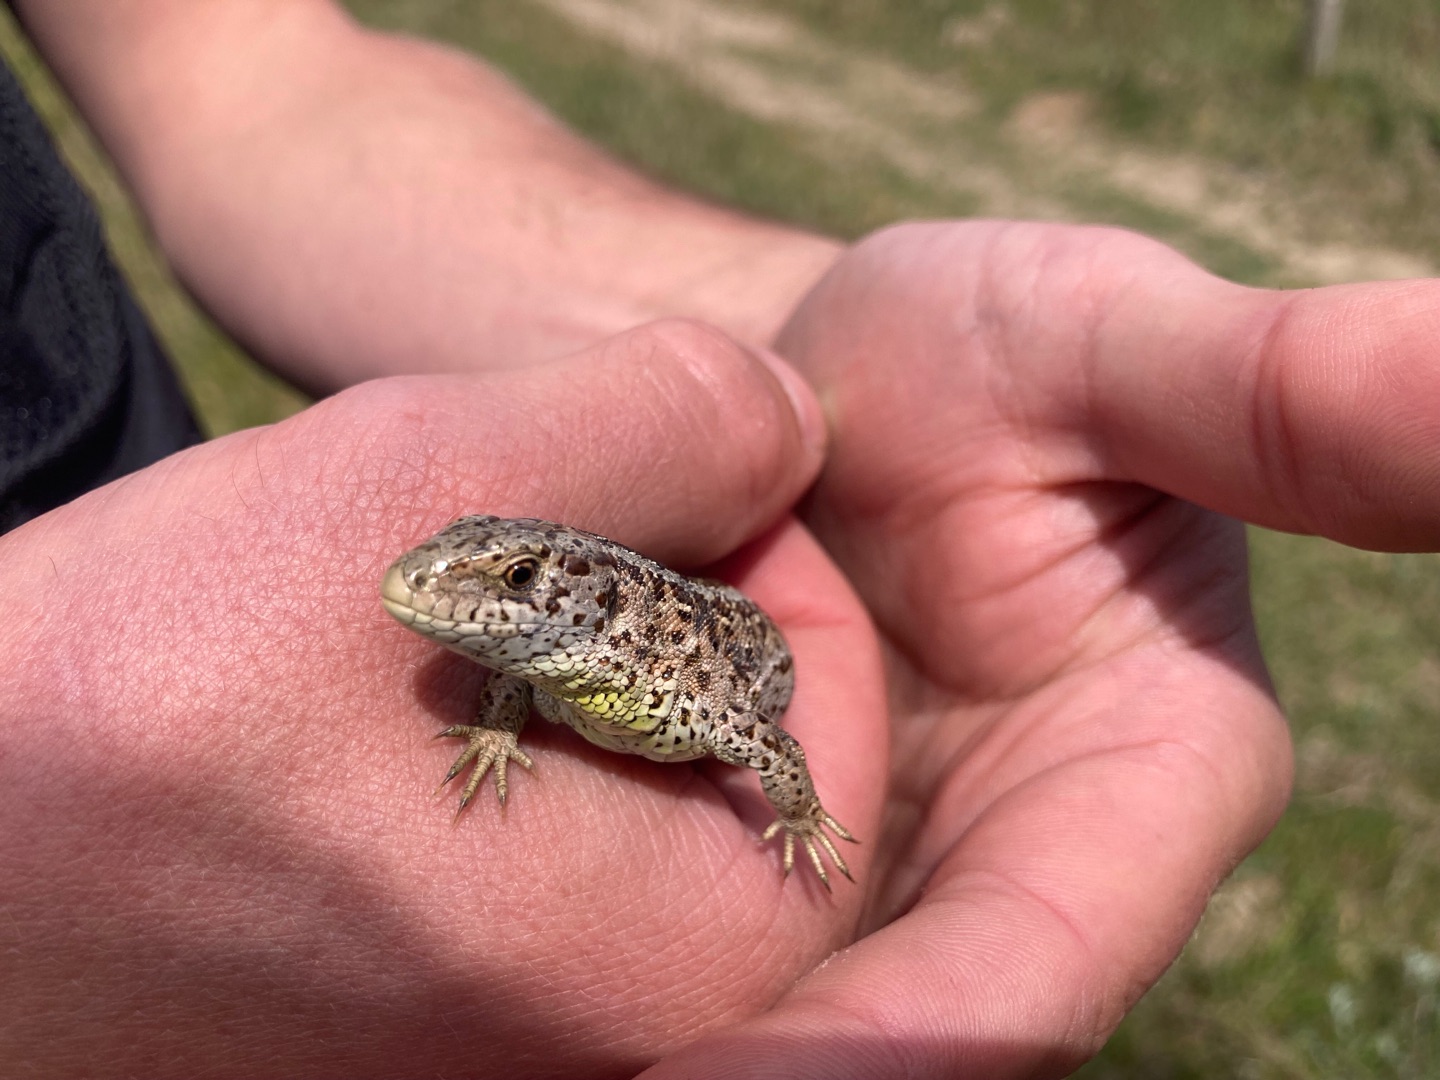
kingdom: Animalia
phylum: Chordata
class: Squamata
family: Lacertidae
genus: Lacerta
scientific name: Lacerta agilis
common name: Markfirben
